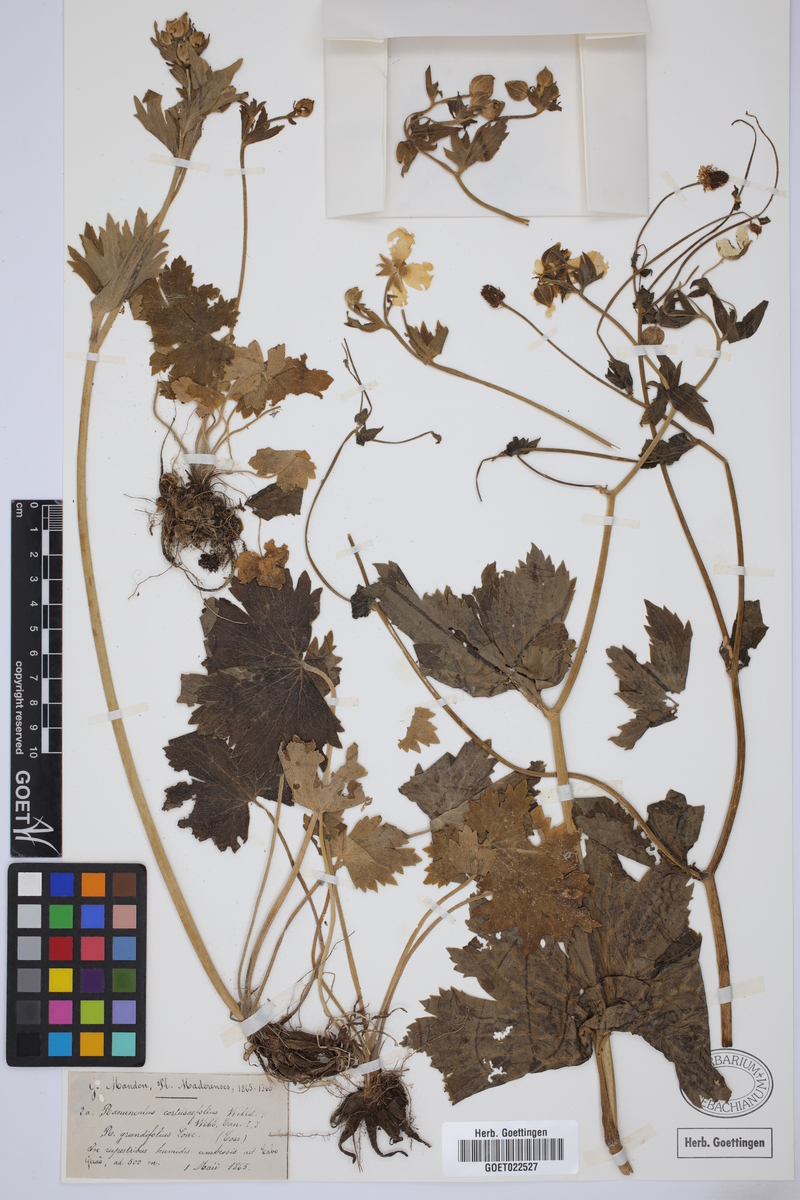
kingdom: Plantae
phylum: Tracheophyta
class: Magnoliopsida
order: Ranunculales
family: Ranunculaceae
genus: Ranunculus
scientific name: Ranunculus cortusifolius
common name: Azores buttercup
